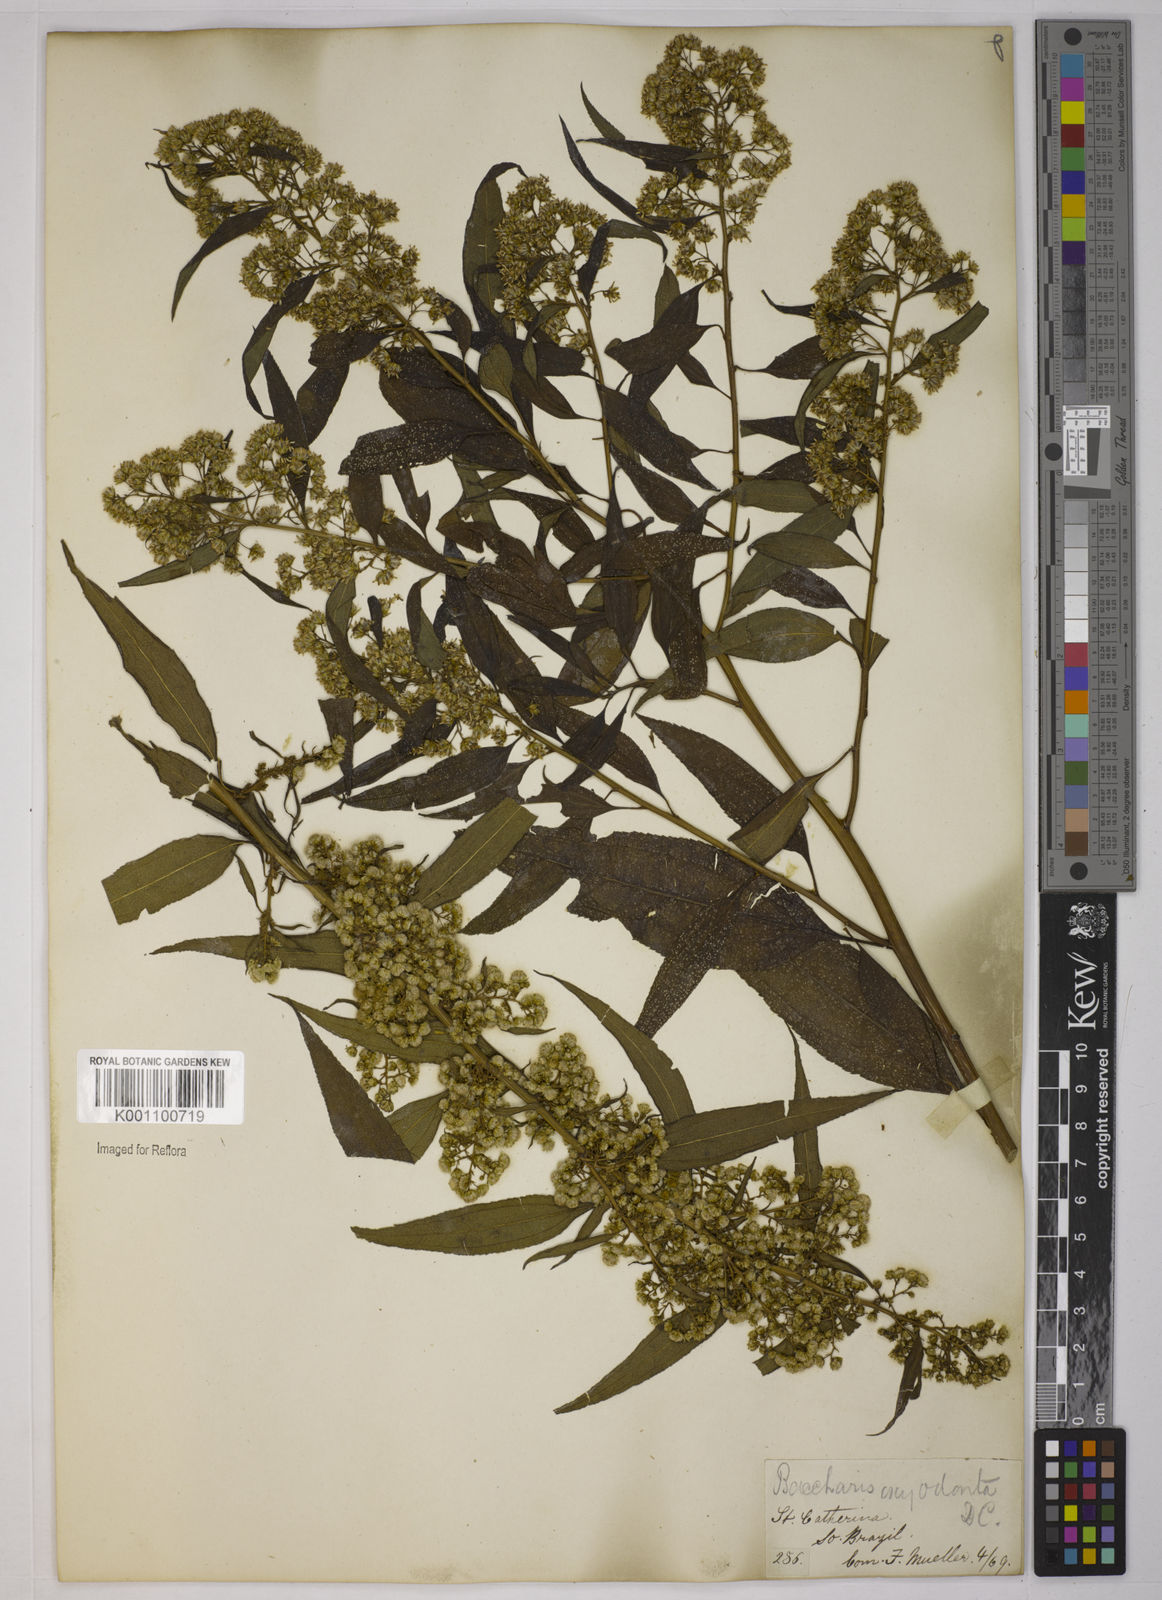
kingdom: Plantae
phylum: Tracheophyta
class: Magnoliopsida
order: Asterales
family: Asteraceae
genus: Baccharis
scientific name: Baccharis oxyodonta
